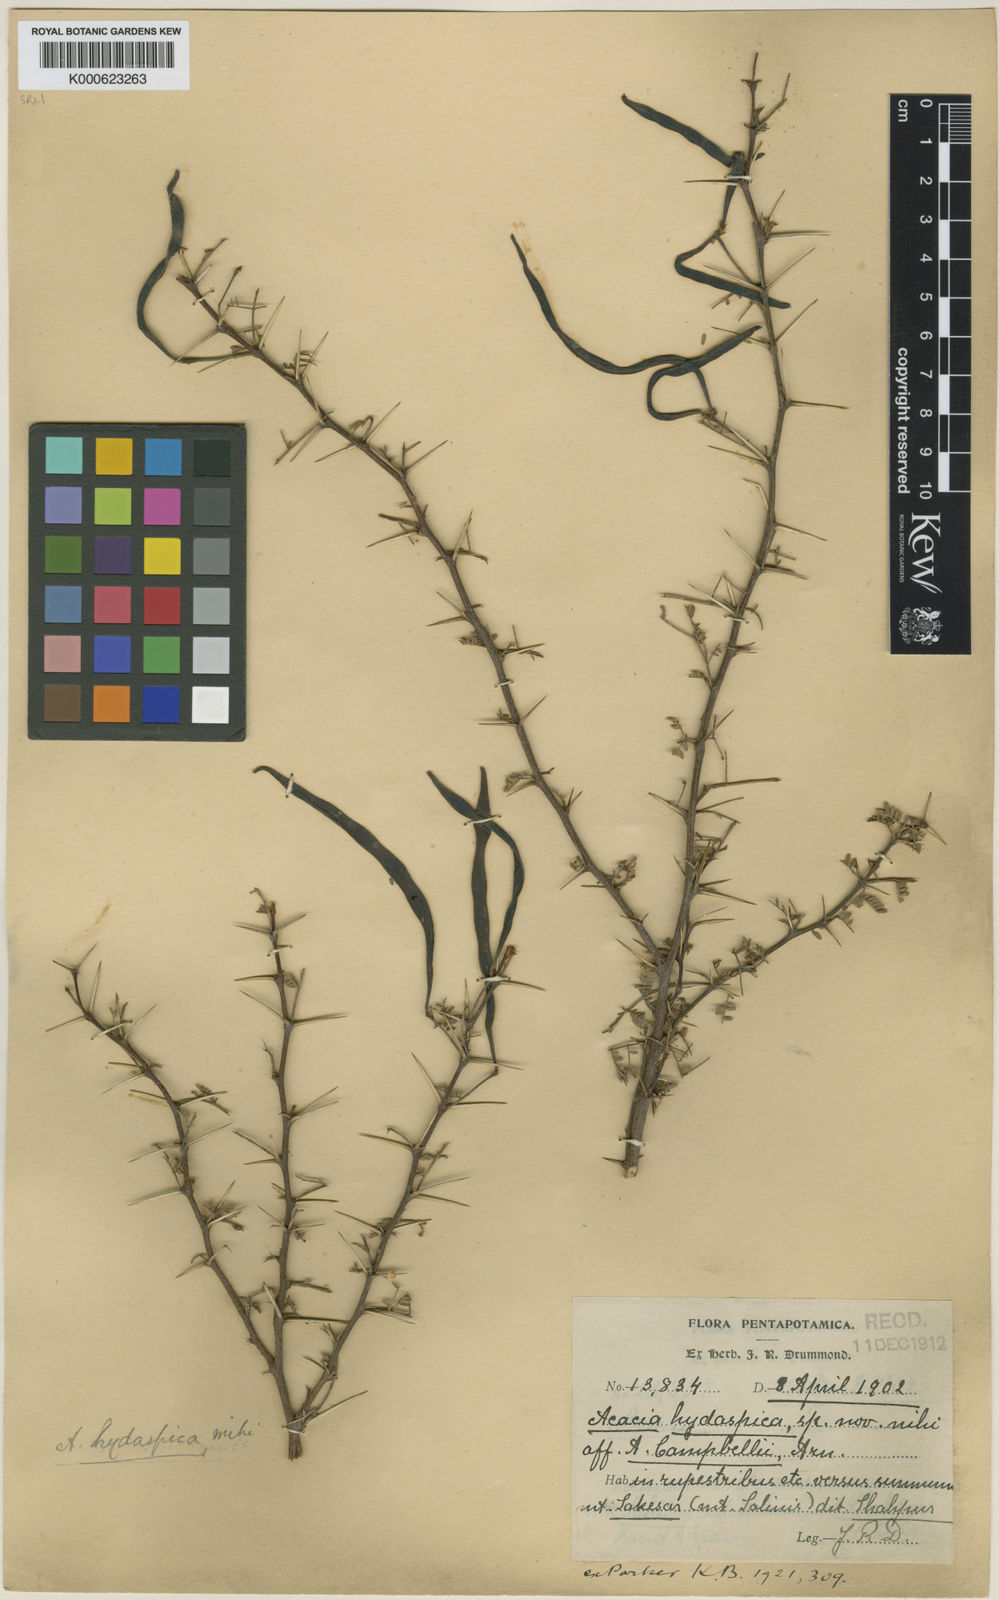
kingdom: Plantae
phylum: Tracheophyta
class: Magnoliopsida
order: Fabales
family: Fabaceae
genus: Vachellia
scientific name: Vachellia hydaspica
